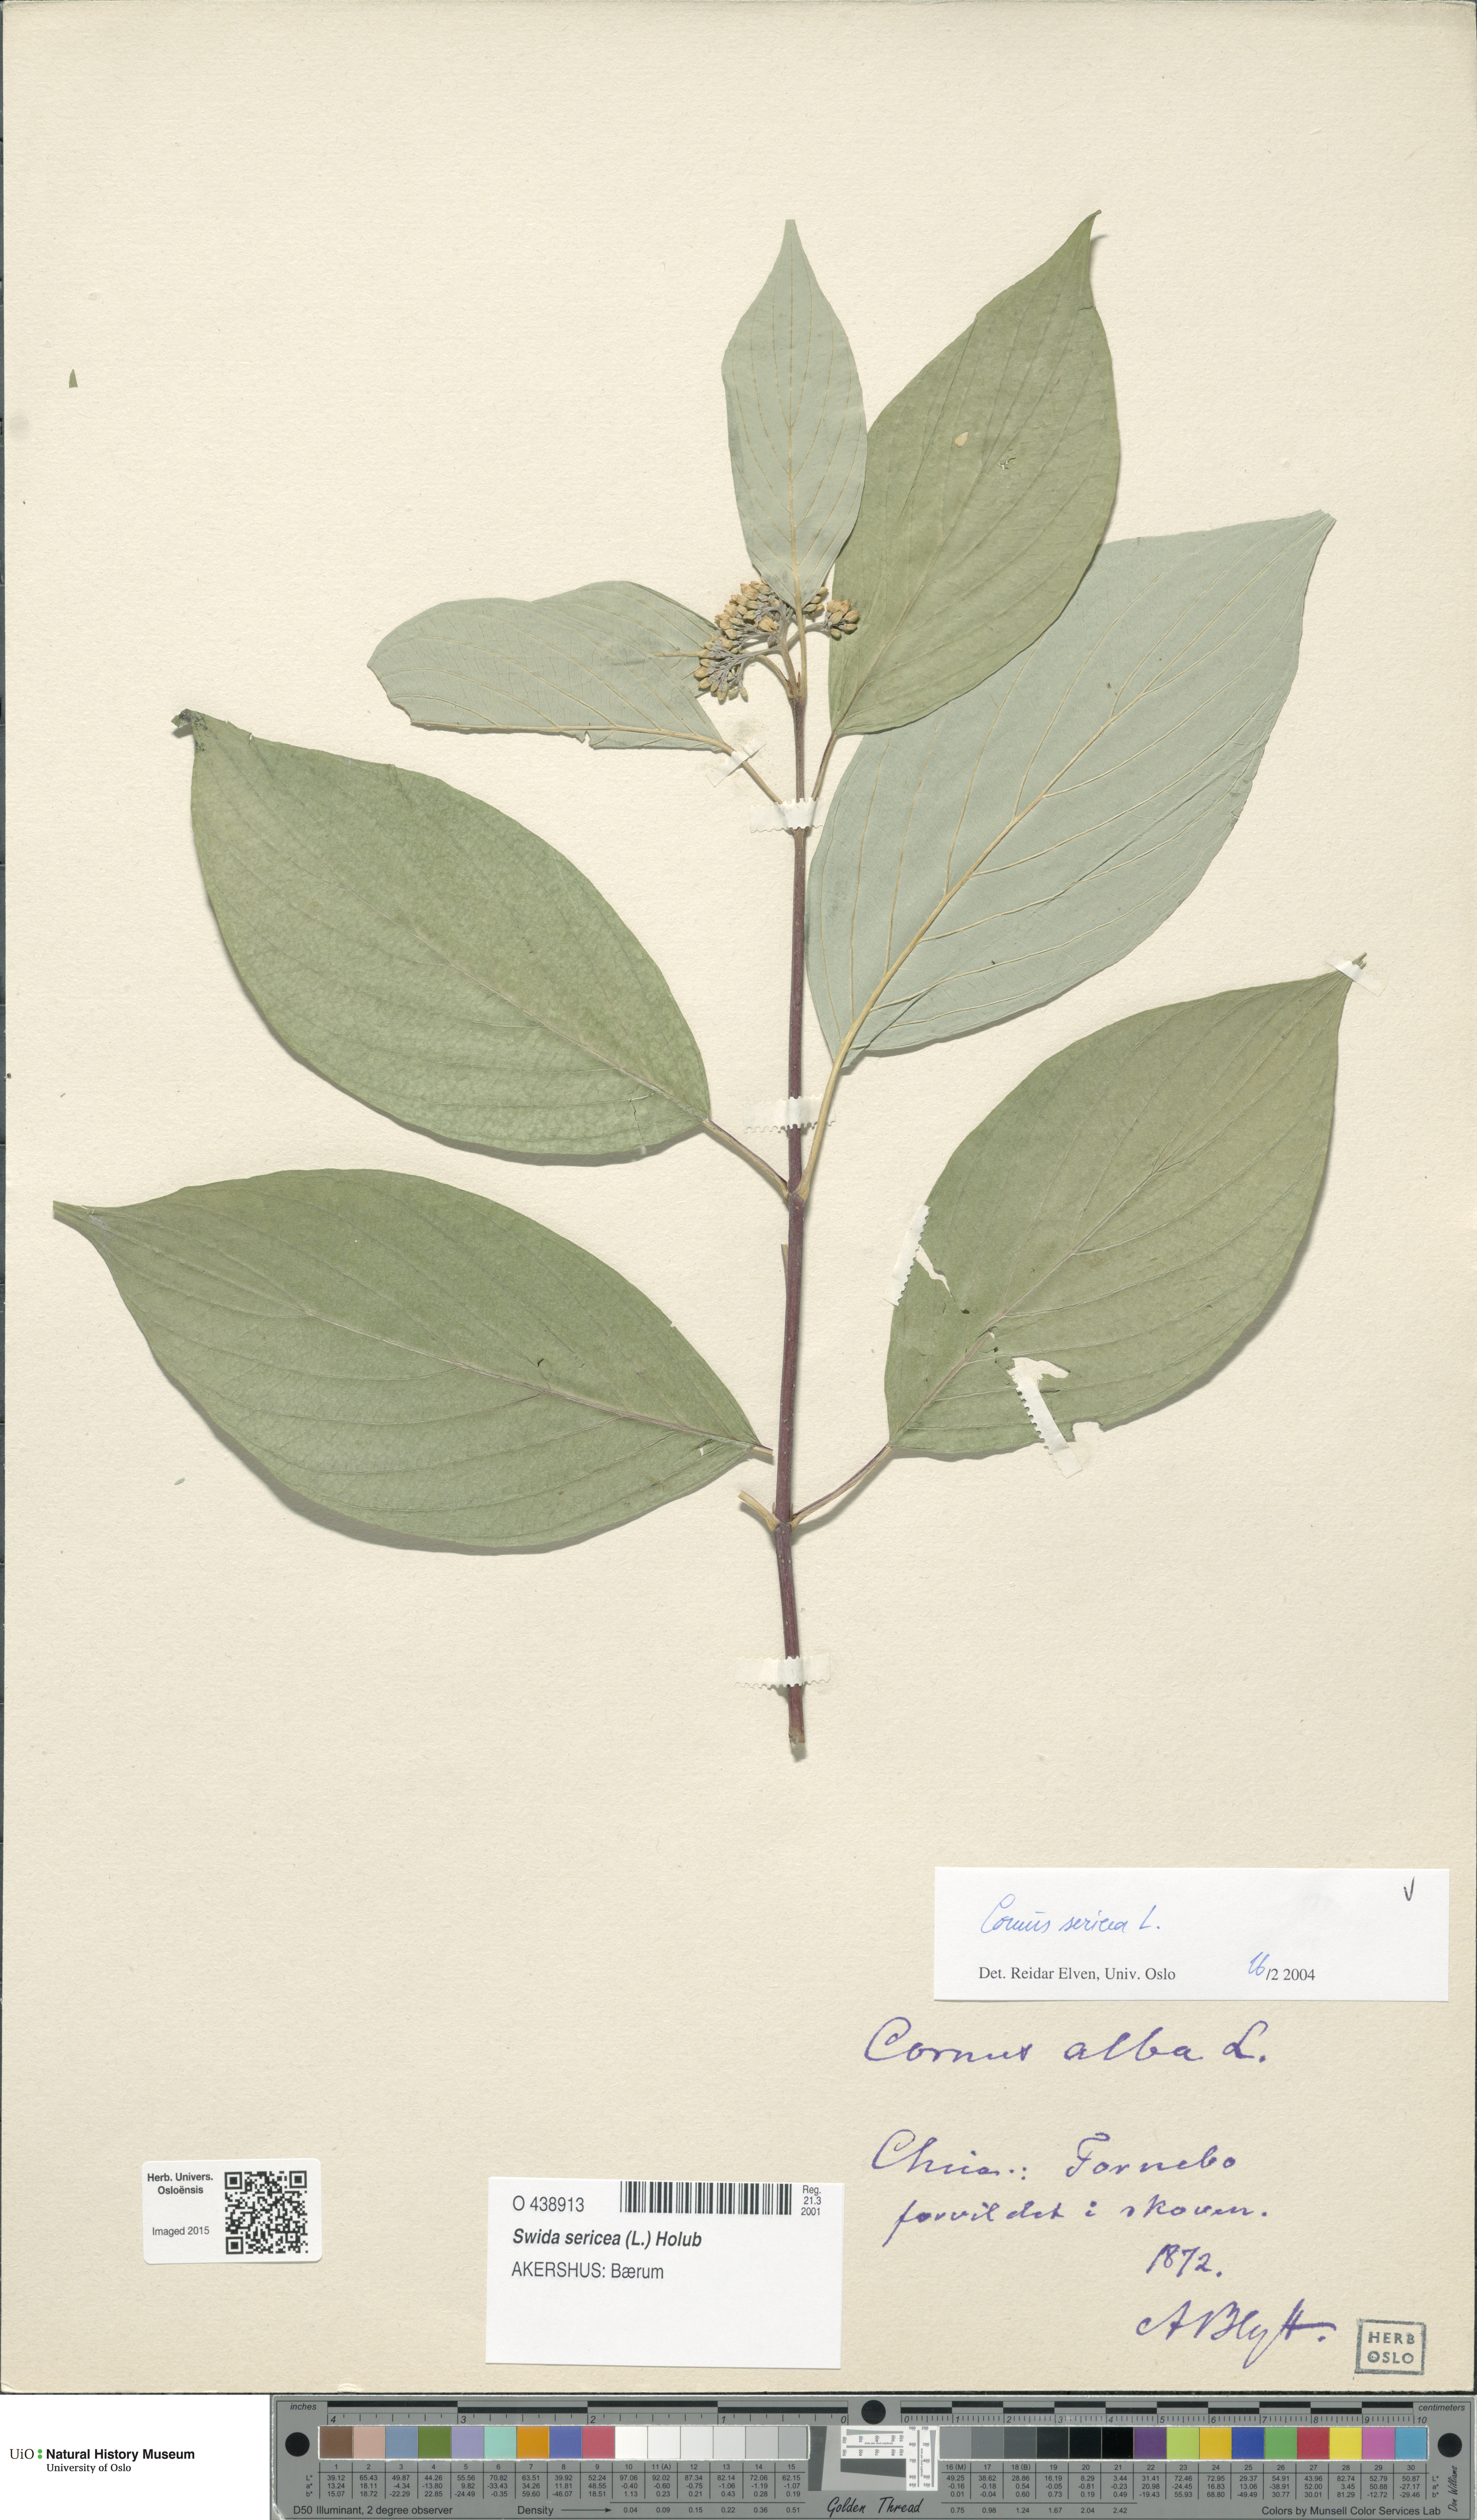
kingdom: Plantae
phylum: Tracheophyta
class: Magnoliopsida
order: Cornales
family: Cornaceae
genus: Cornus
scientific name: Cornus sericea
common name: Red-osier dogwood
